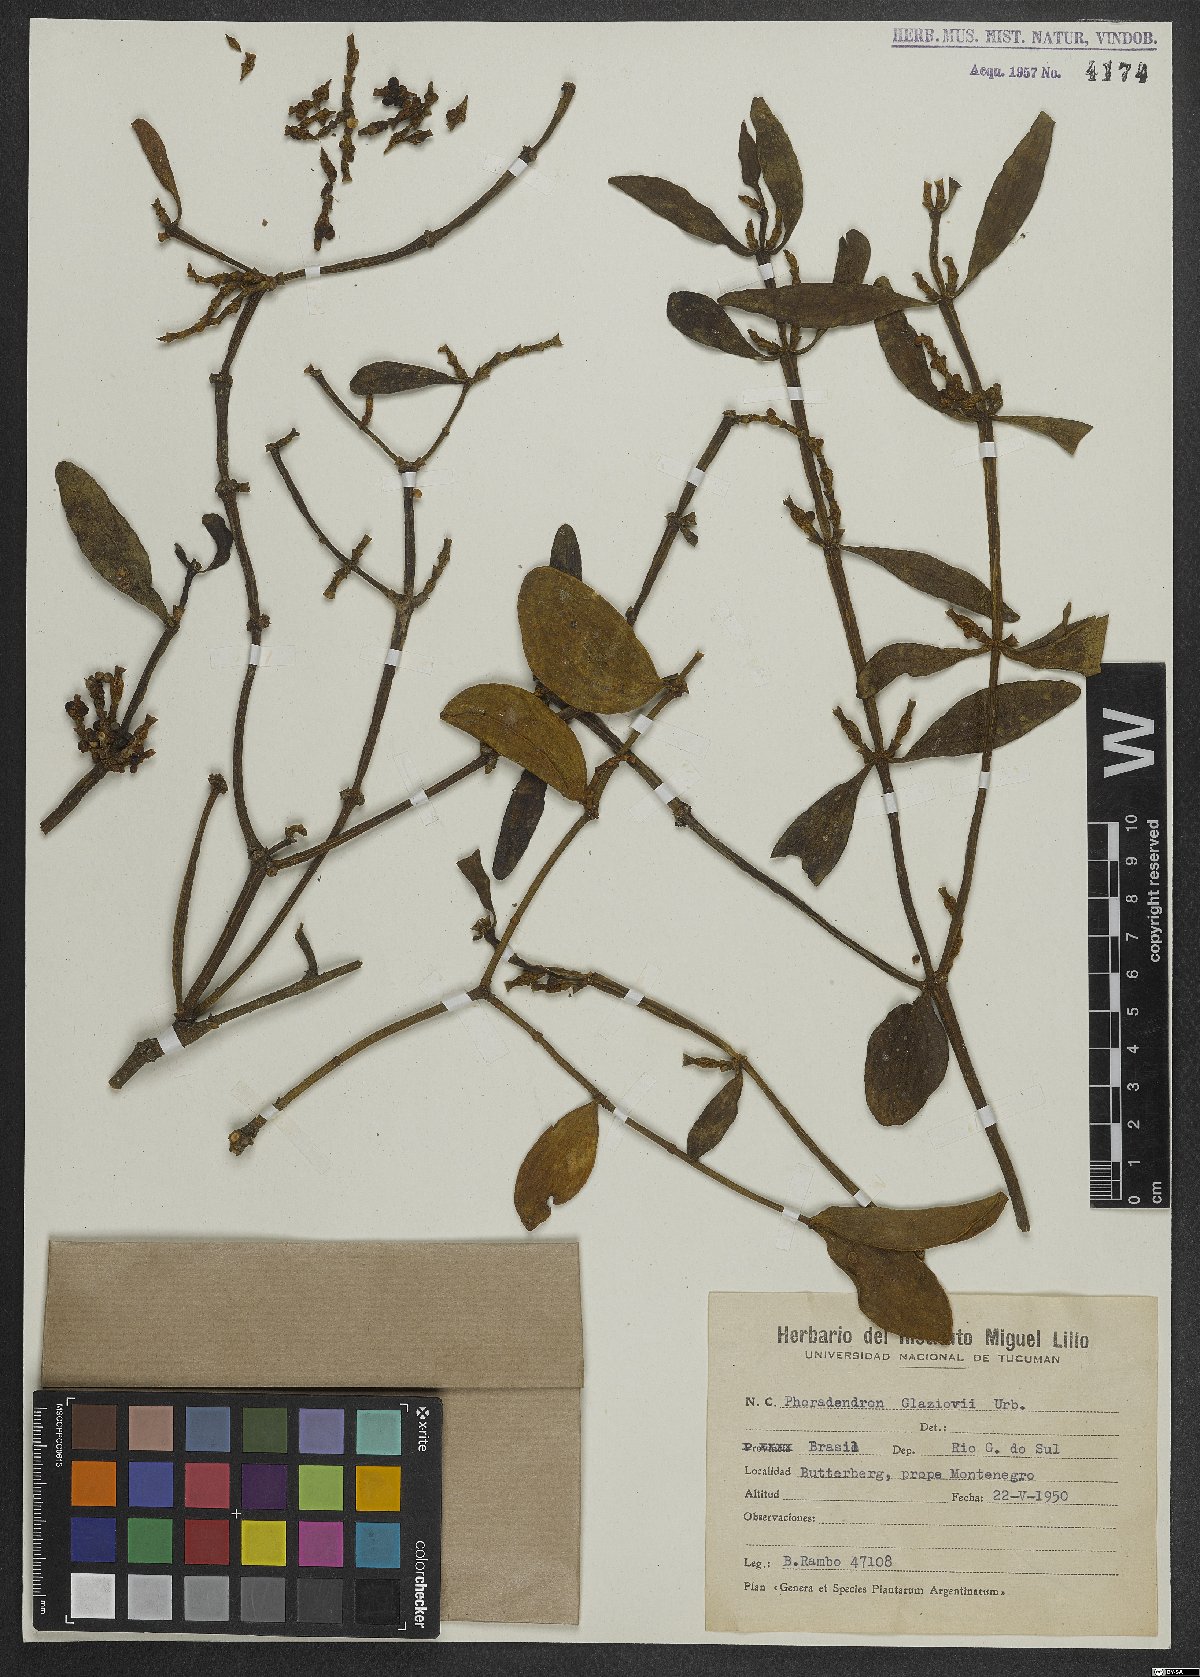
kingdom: Plantae
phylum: Tracheophyta
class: Magnoliopsida
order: Santalales
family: Viscaceae
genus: Phoradendron
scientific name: Phoradendron dipterum
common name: Fourpart mistletoe
